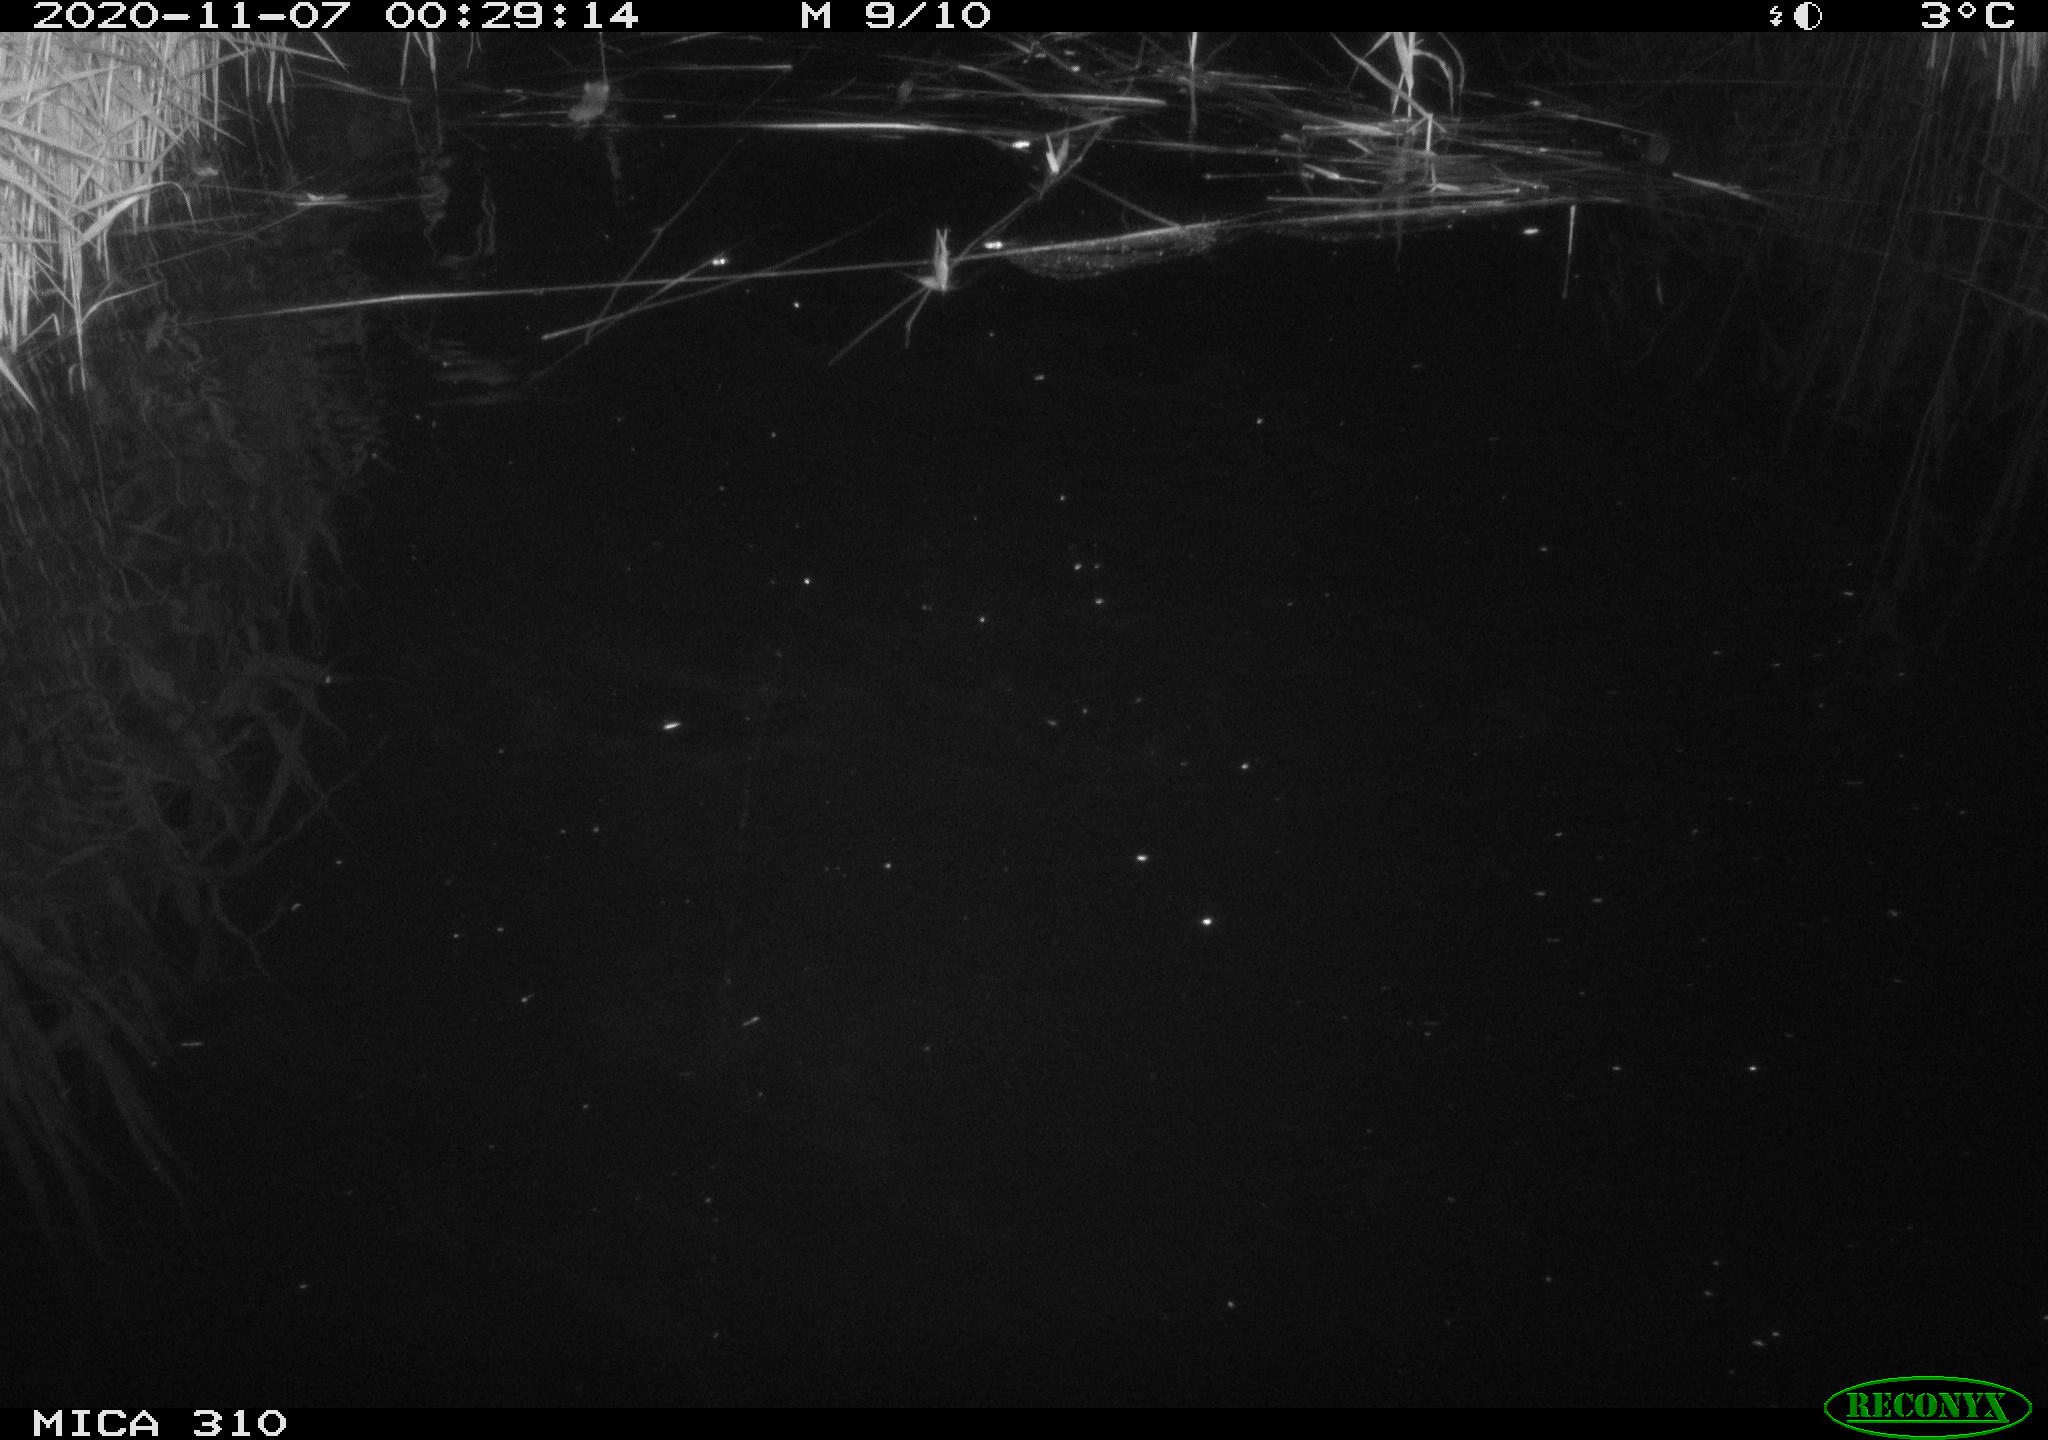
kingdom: Animalia
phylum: Chordata
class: Mammalia
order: Rodentia
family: Muridae
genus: Rattus
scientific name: Rattus norvegicus
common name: Brown rat
